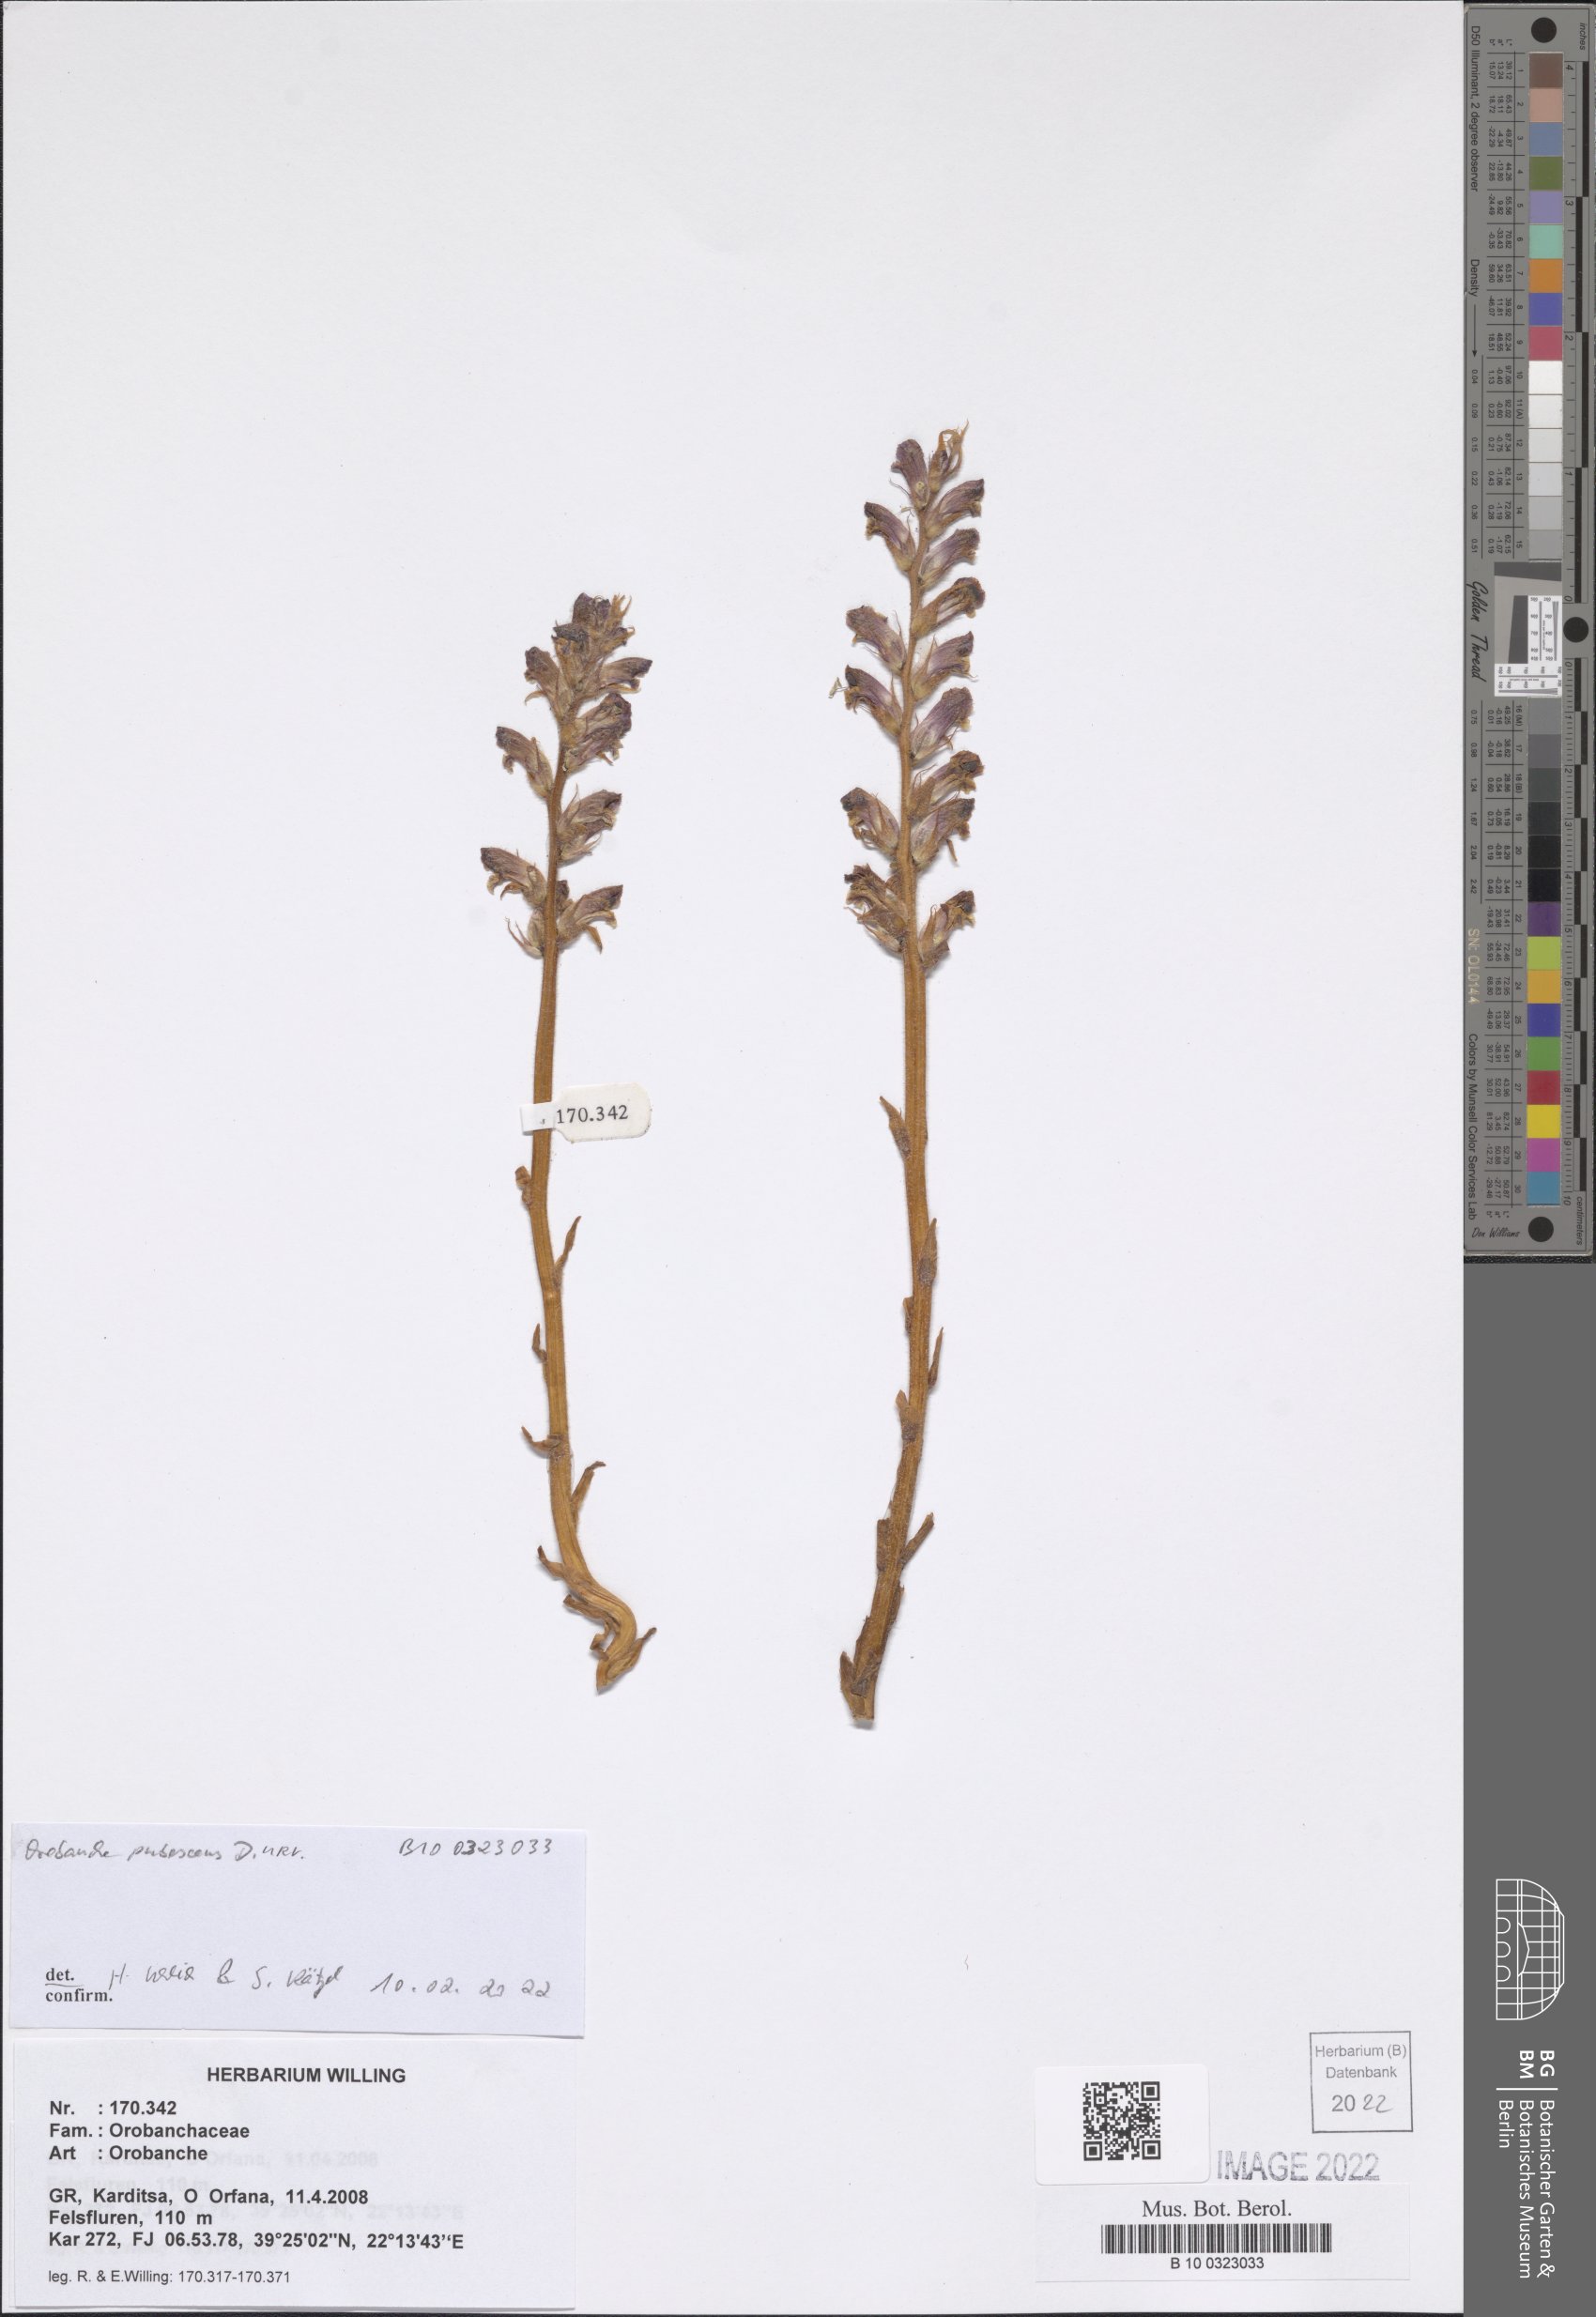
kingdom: Plantae
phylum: Tracheophyta
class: Magnoliopsida
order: Lamiales
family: Orobanchaceae
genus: Orobanche
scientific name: Orobanche pubescens
